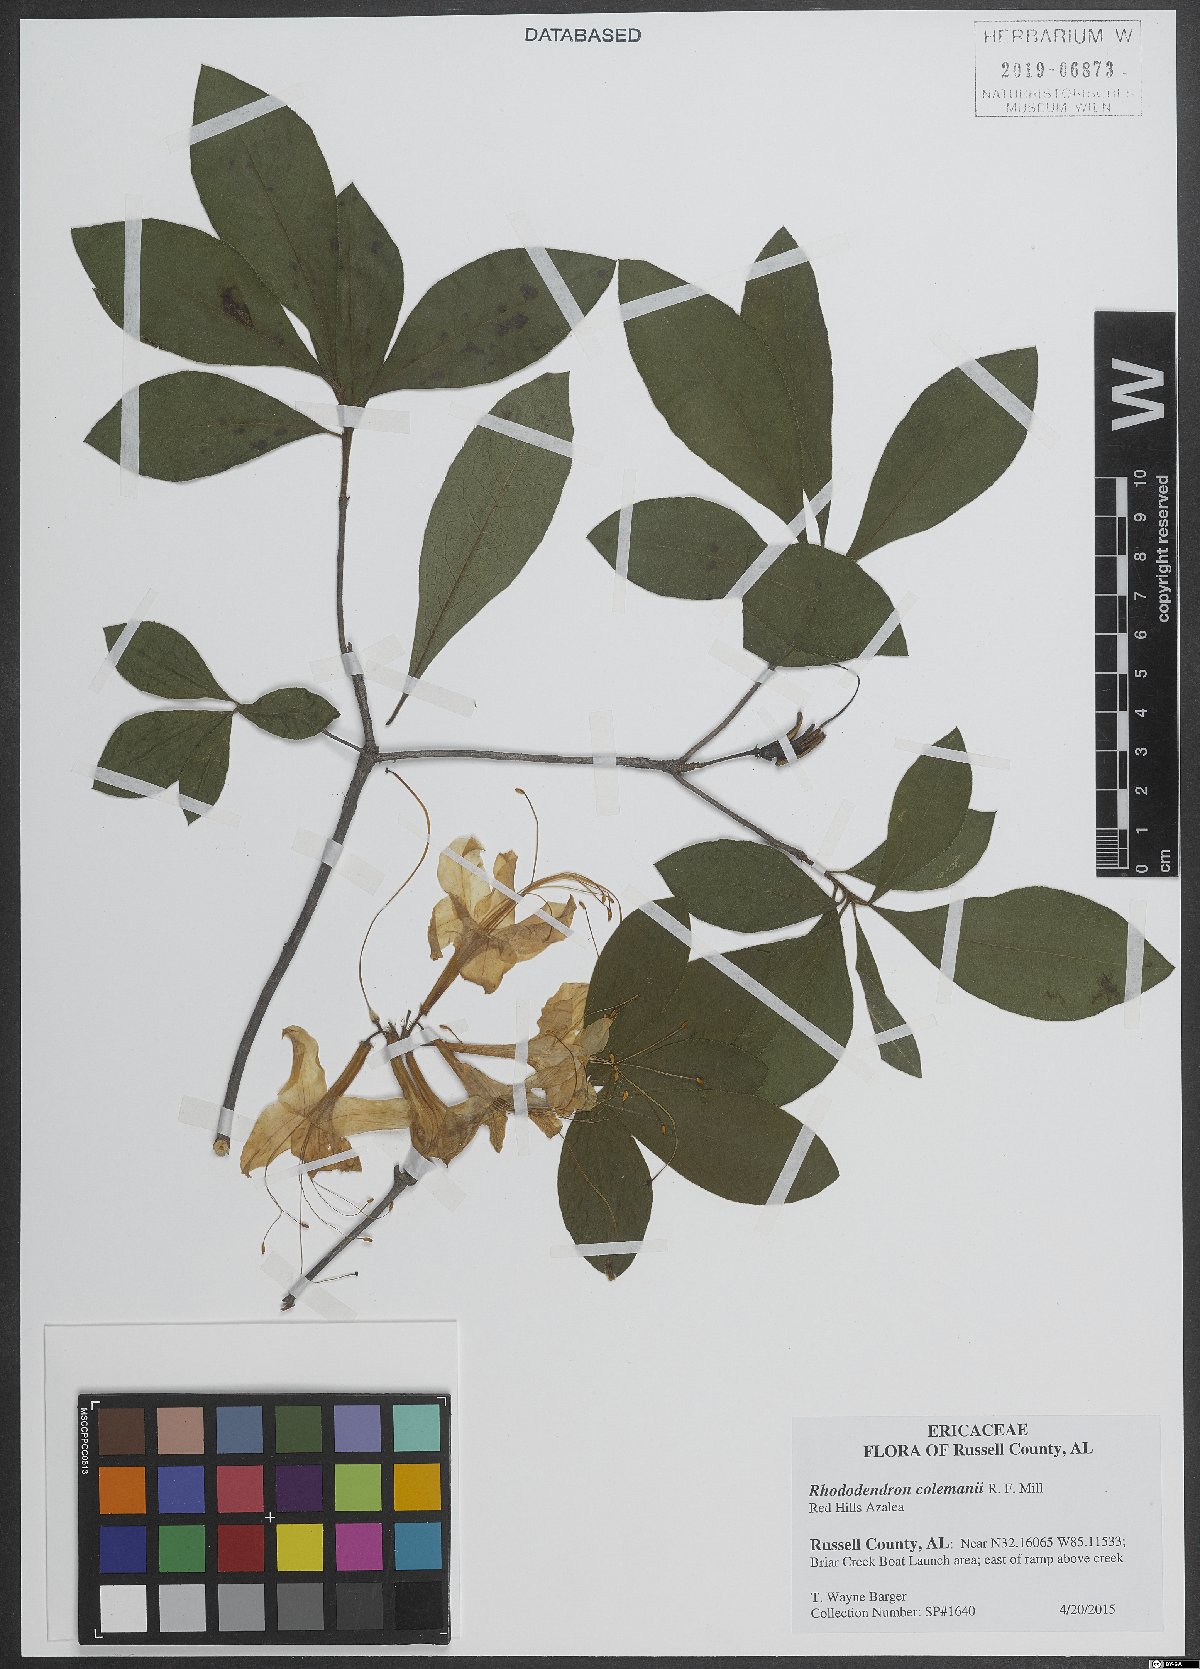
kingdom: Plantae
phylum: Tracheophyta
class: Magnoliopsida
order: Ericales
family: Ericaceae
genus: Rhododendron
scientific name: Rhododendron colemanii
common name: Red hills azalea
